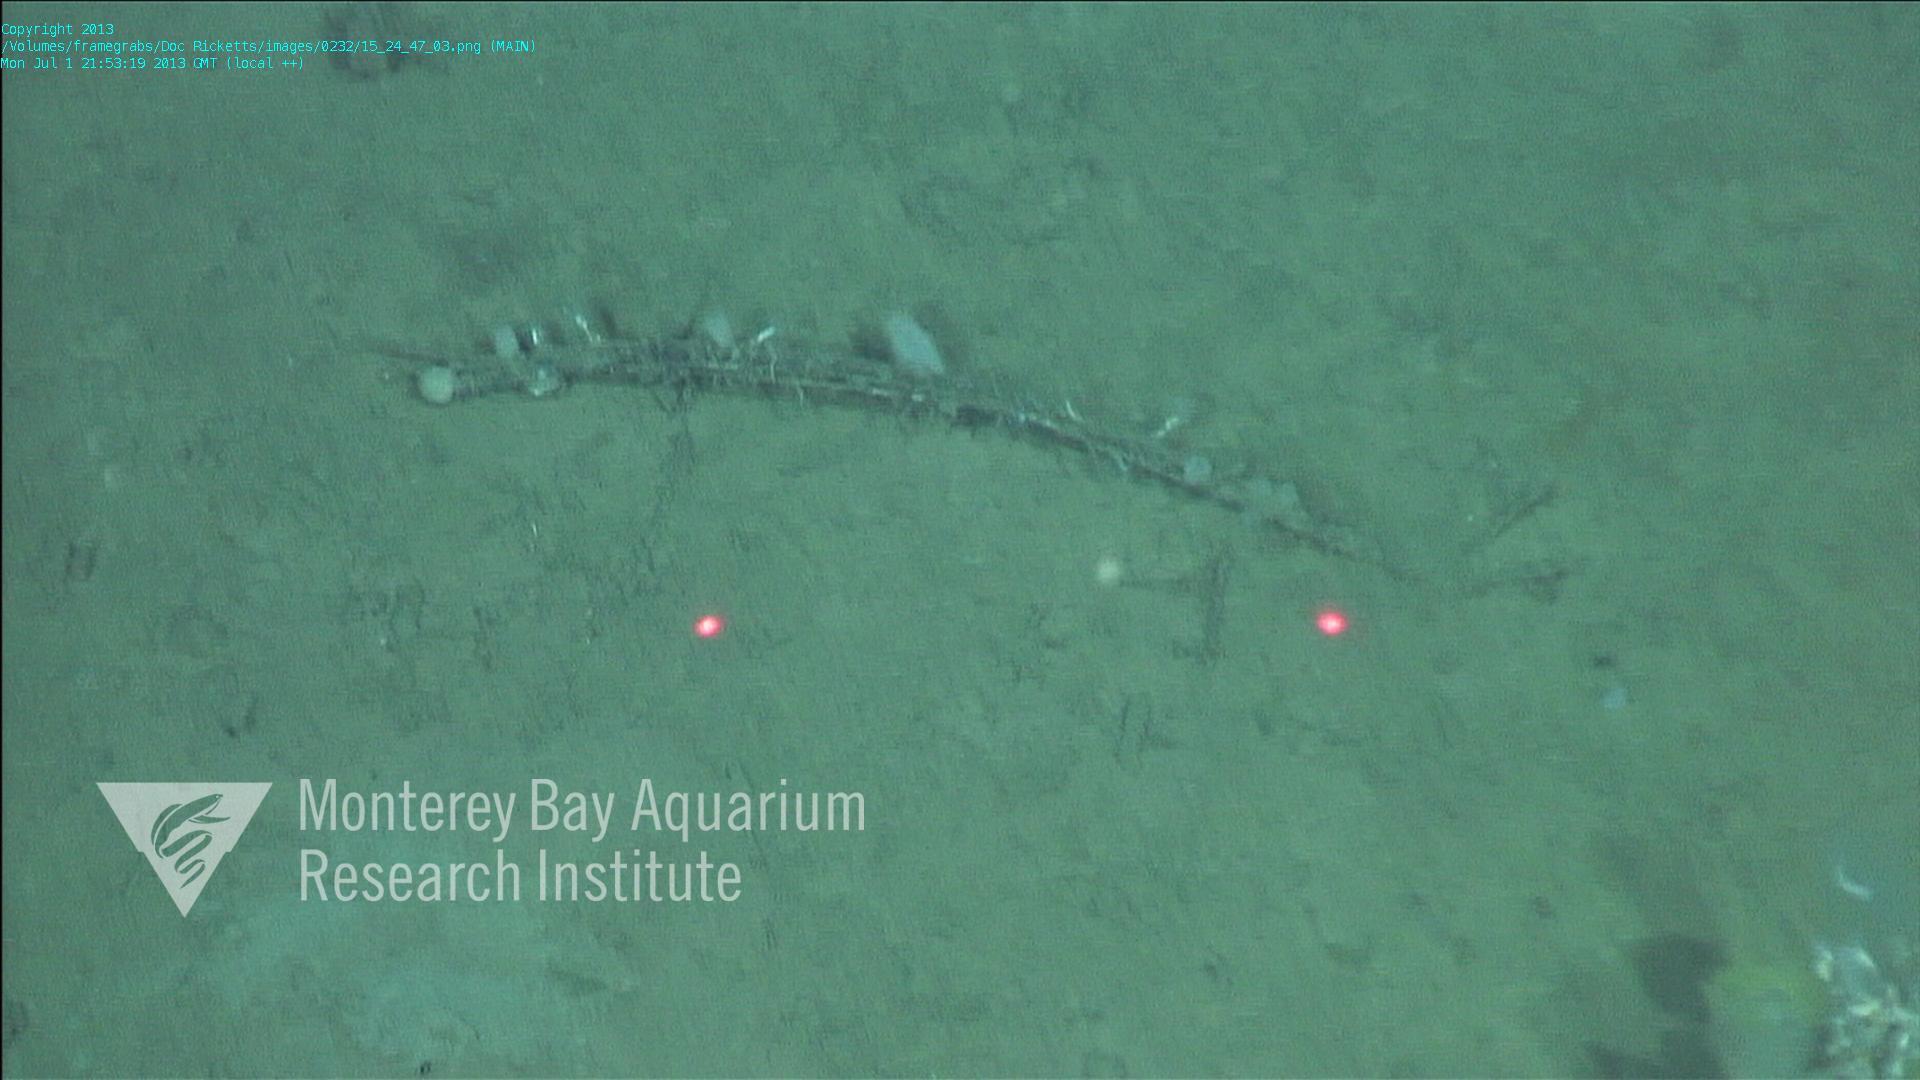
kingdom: Animalia
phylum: Porifera
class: Hexactinellida
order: Lyssacinosida
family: Rossellidae
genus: Bathydorus
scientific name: Bathydorus spinosus
